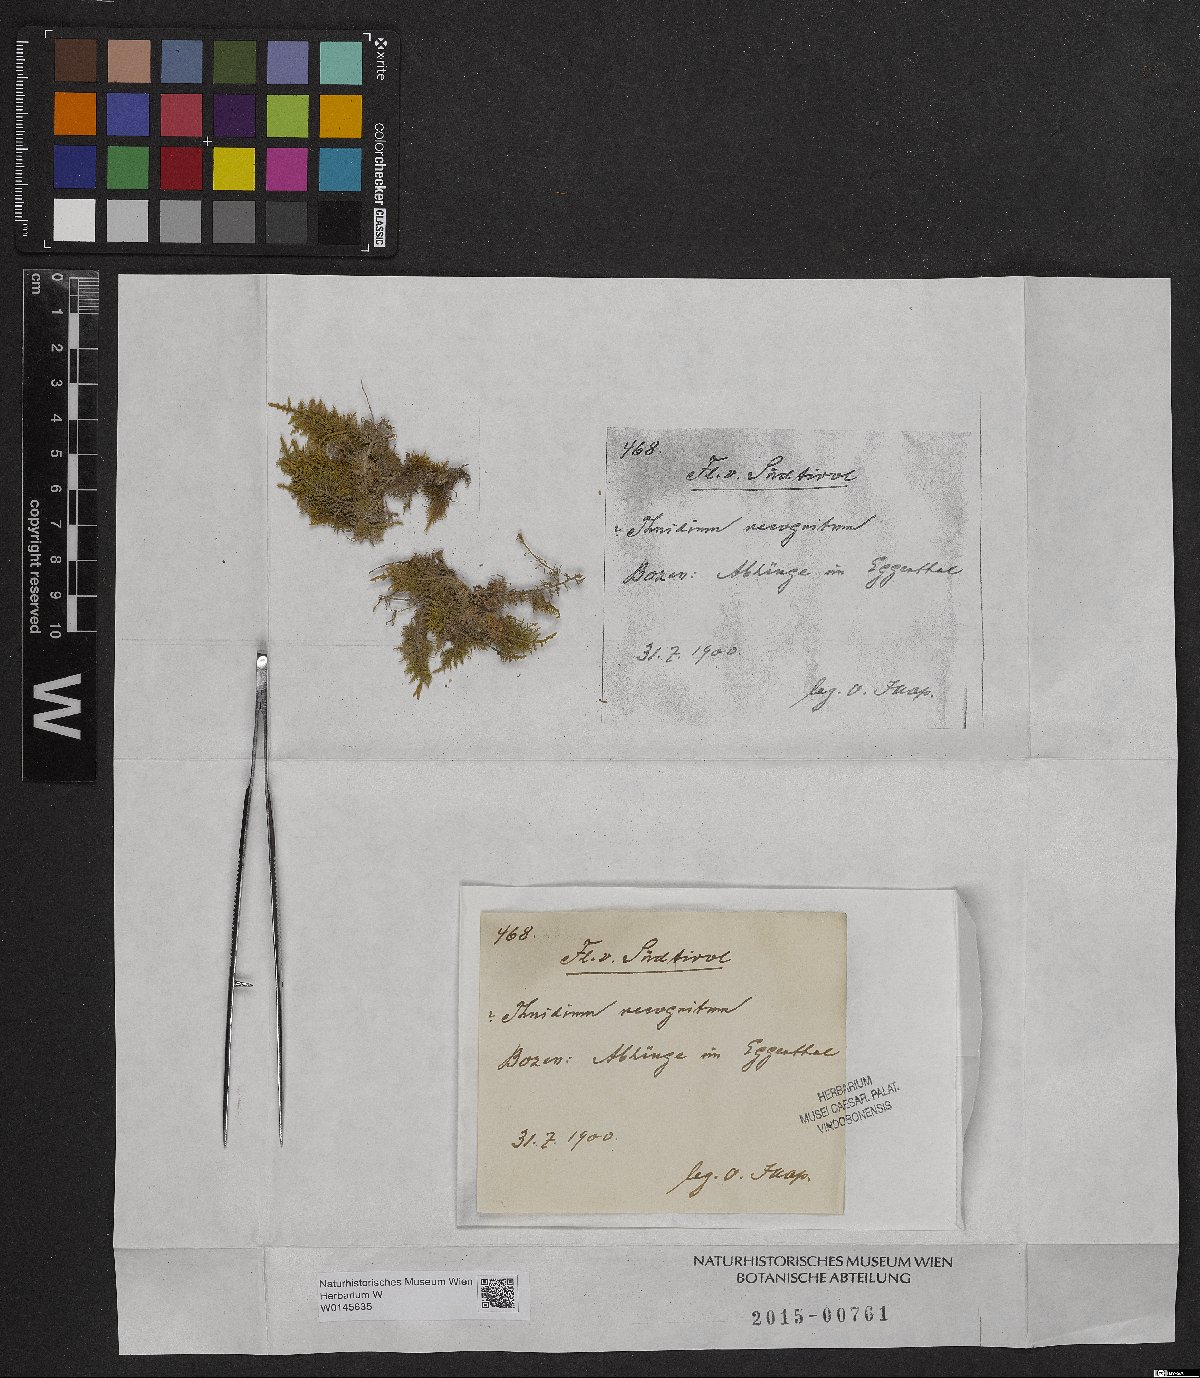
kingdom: Plantae
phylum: Bryophyta
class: Bryopsida
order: Hypnales
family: Thuidiaceae
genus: Thuidium
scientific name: Thuidium recognitum
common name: Hook-leaved fern moss
